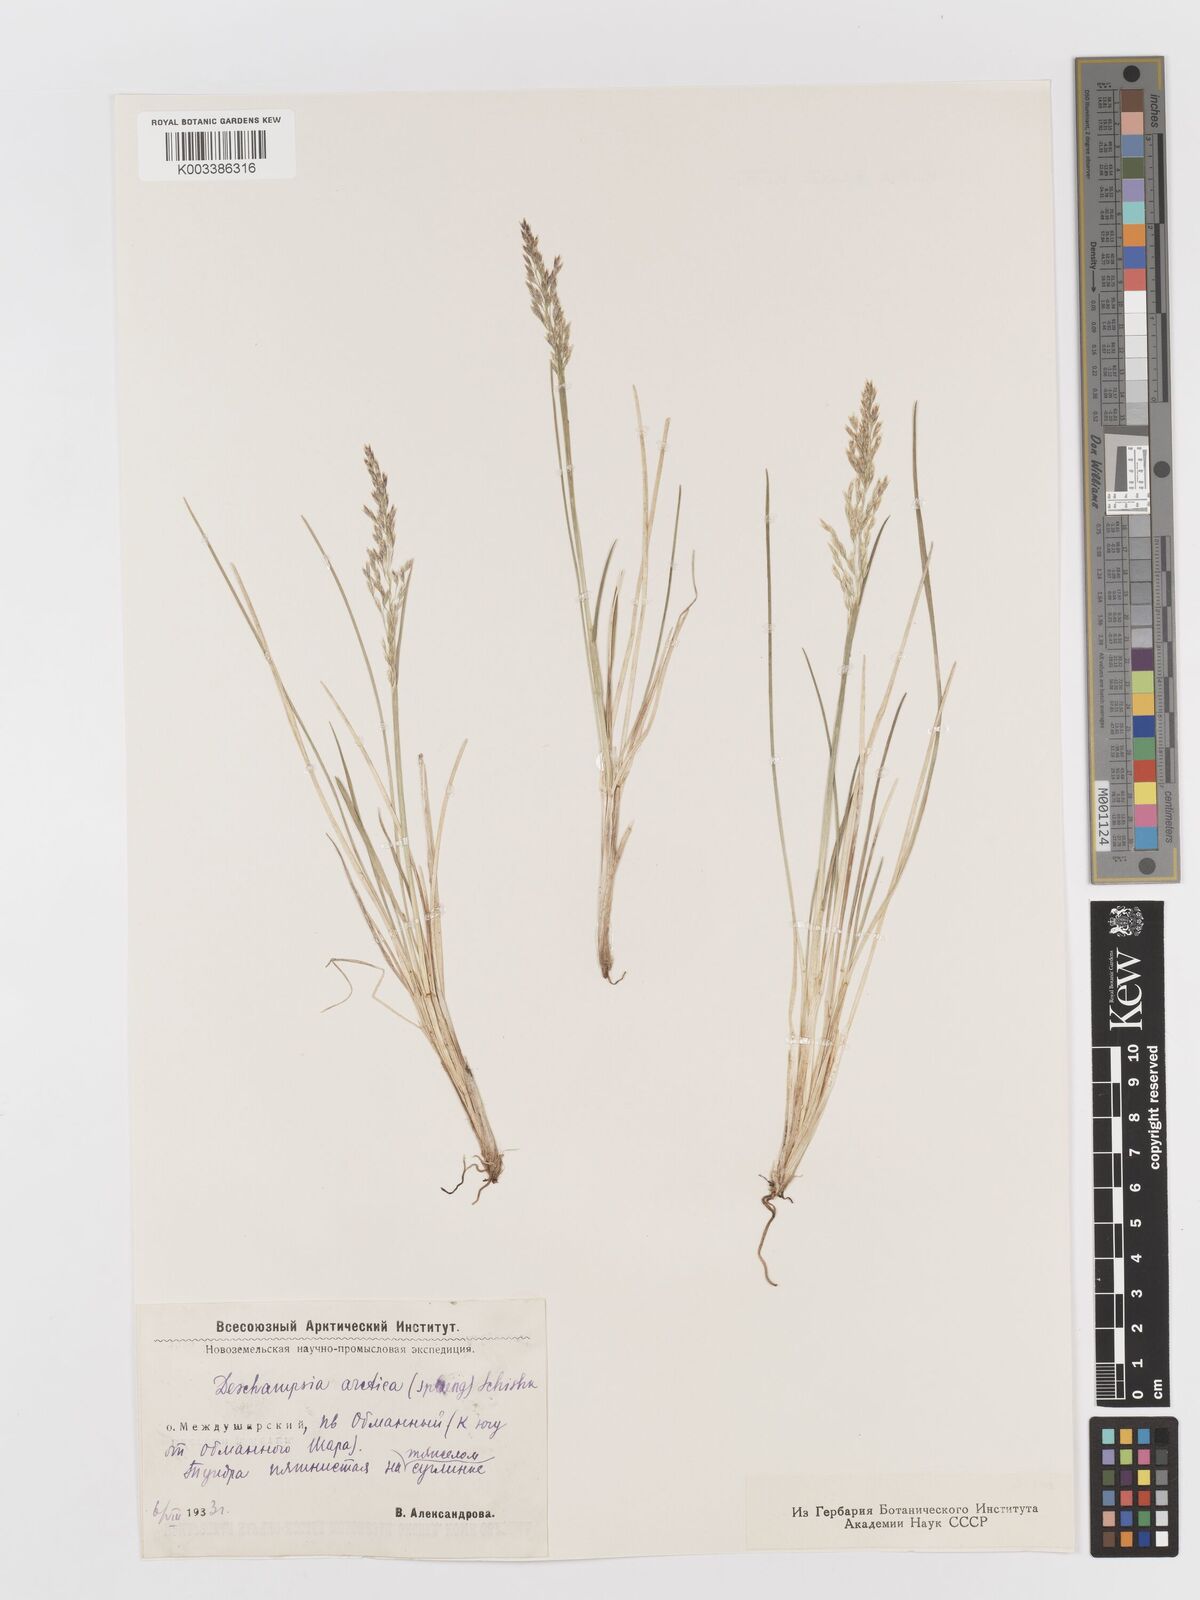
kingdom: Plantae
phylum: Tracheophyta
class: Liliopsida
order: Poales
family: Poaceae
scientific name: Poaceae
